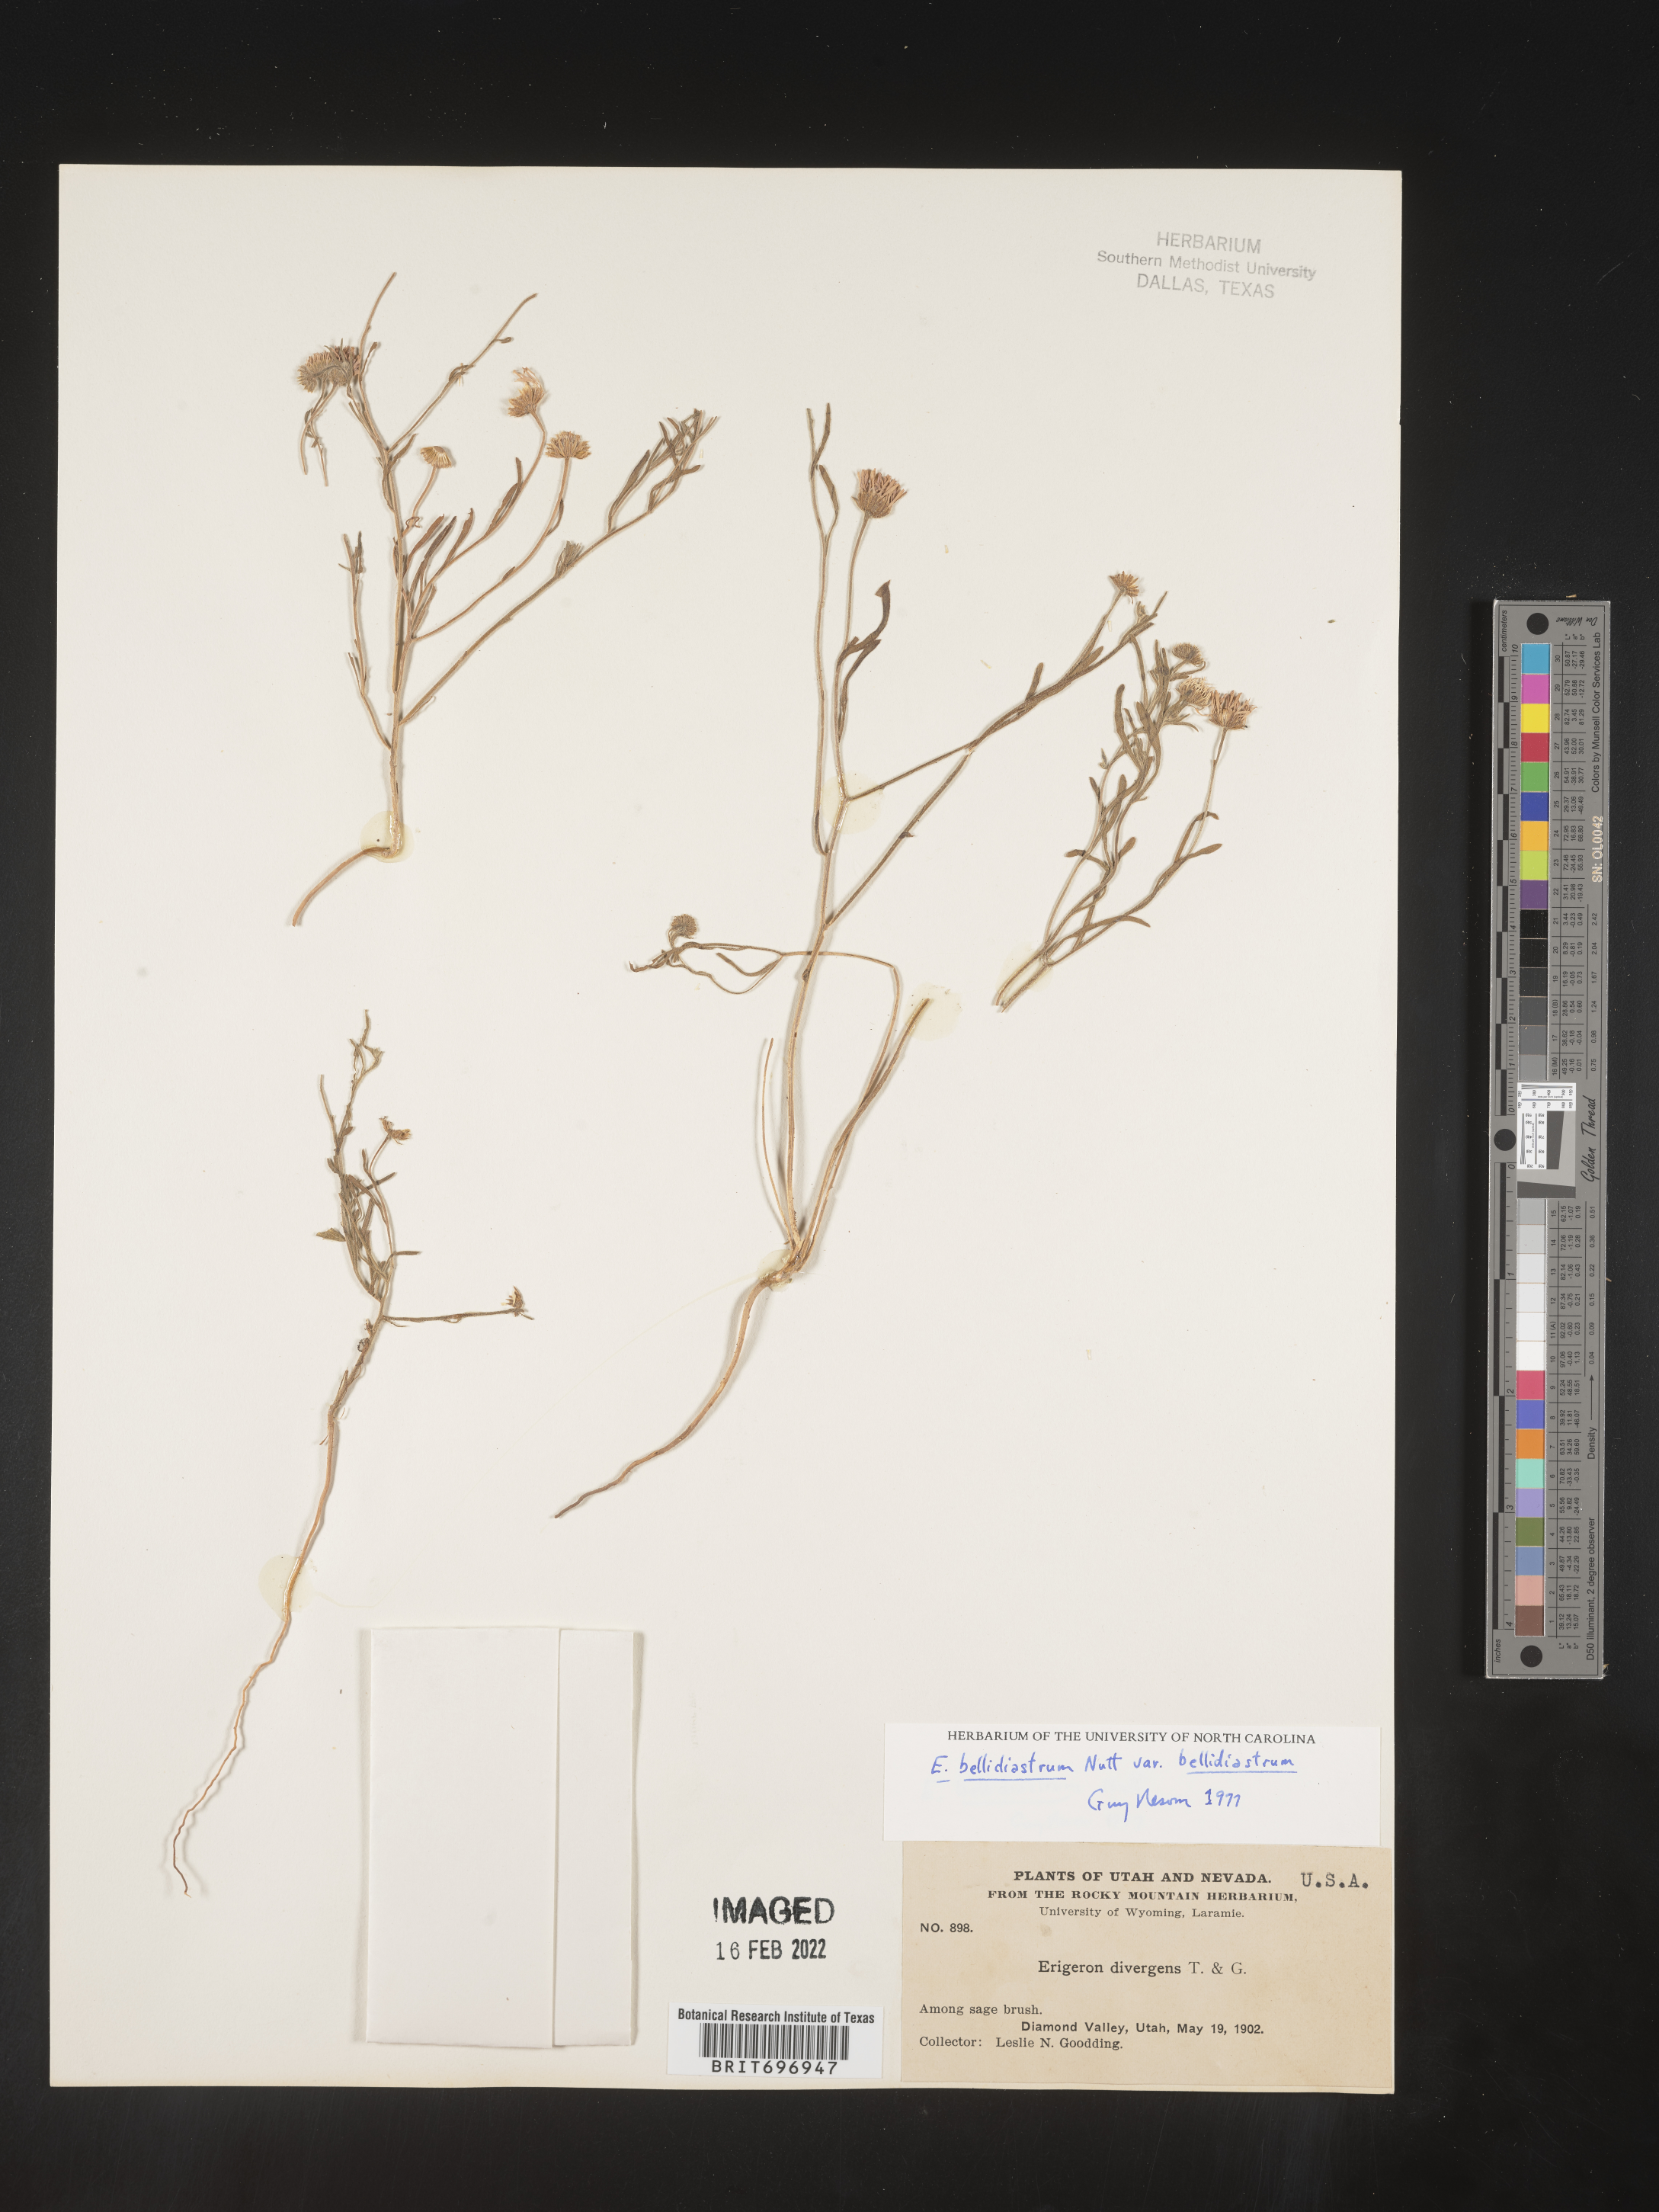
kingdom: Plantae
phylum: Tracheophyta
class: Magnoliopsida
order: Asterales
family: Asteraceae
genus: Erigeron
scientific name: Erigeron bellidiastrum
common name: Sand fleabane
